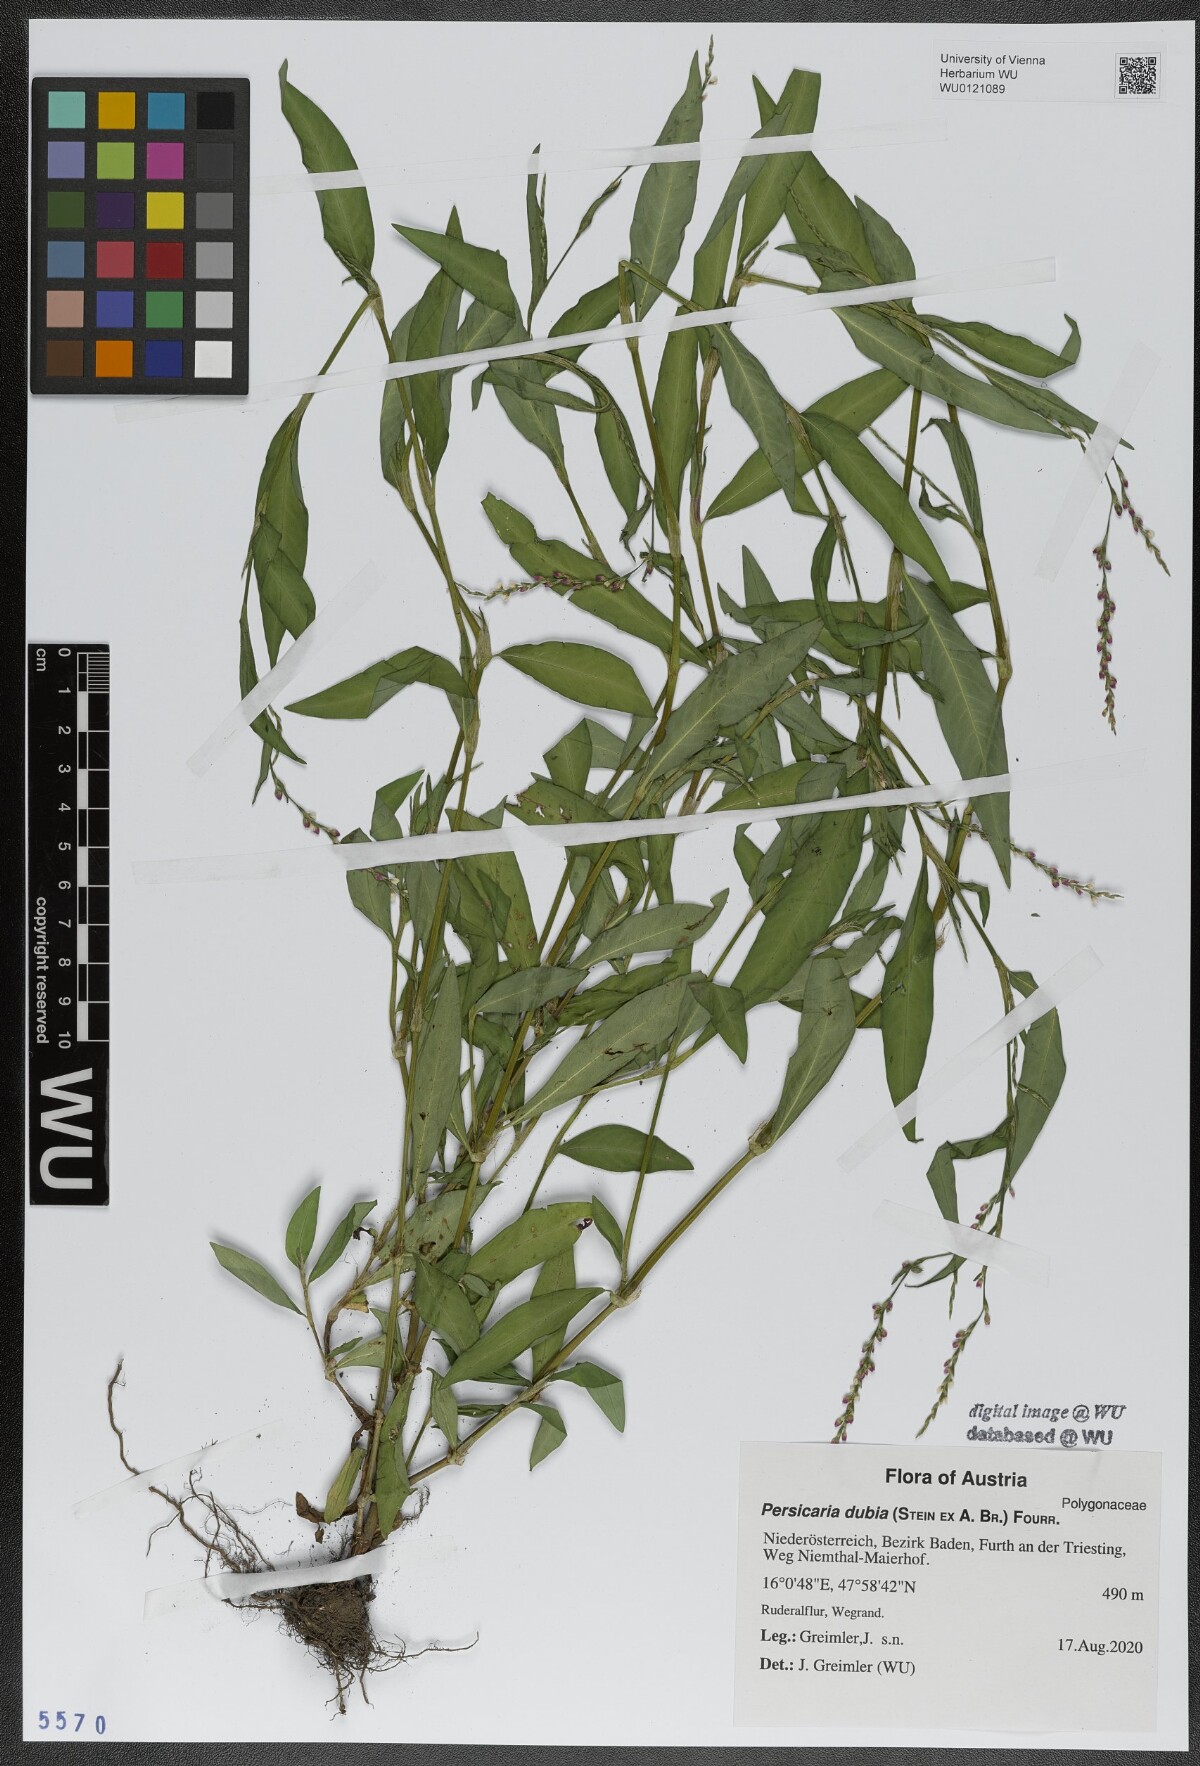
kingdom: Plantae
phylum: Tracheophyta
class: Magnoliopsida
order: Caryophyllales
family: Polygonaceae
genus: Persicaria
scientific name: Persicaria mitis
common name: Tasteless water-pepper
